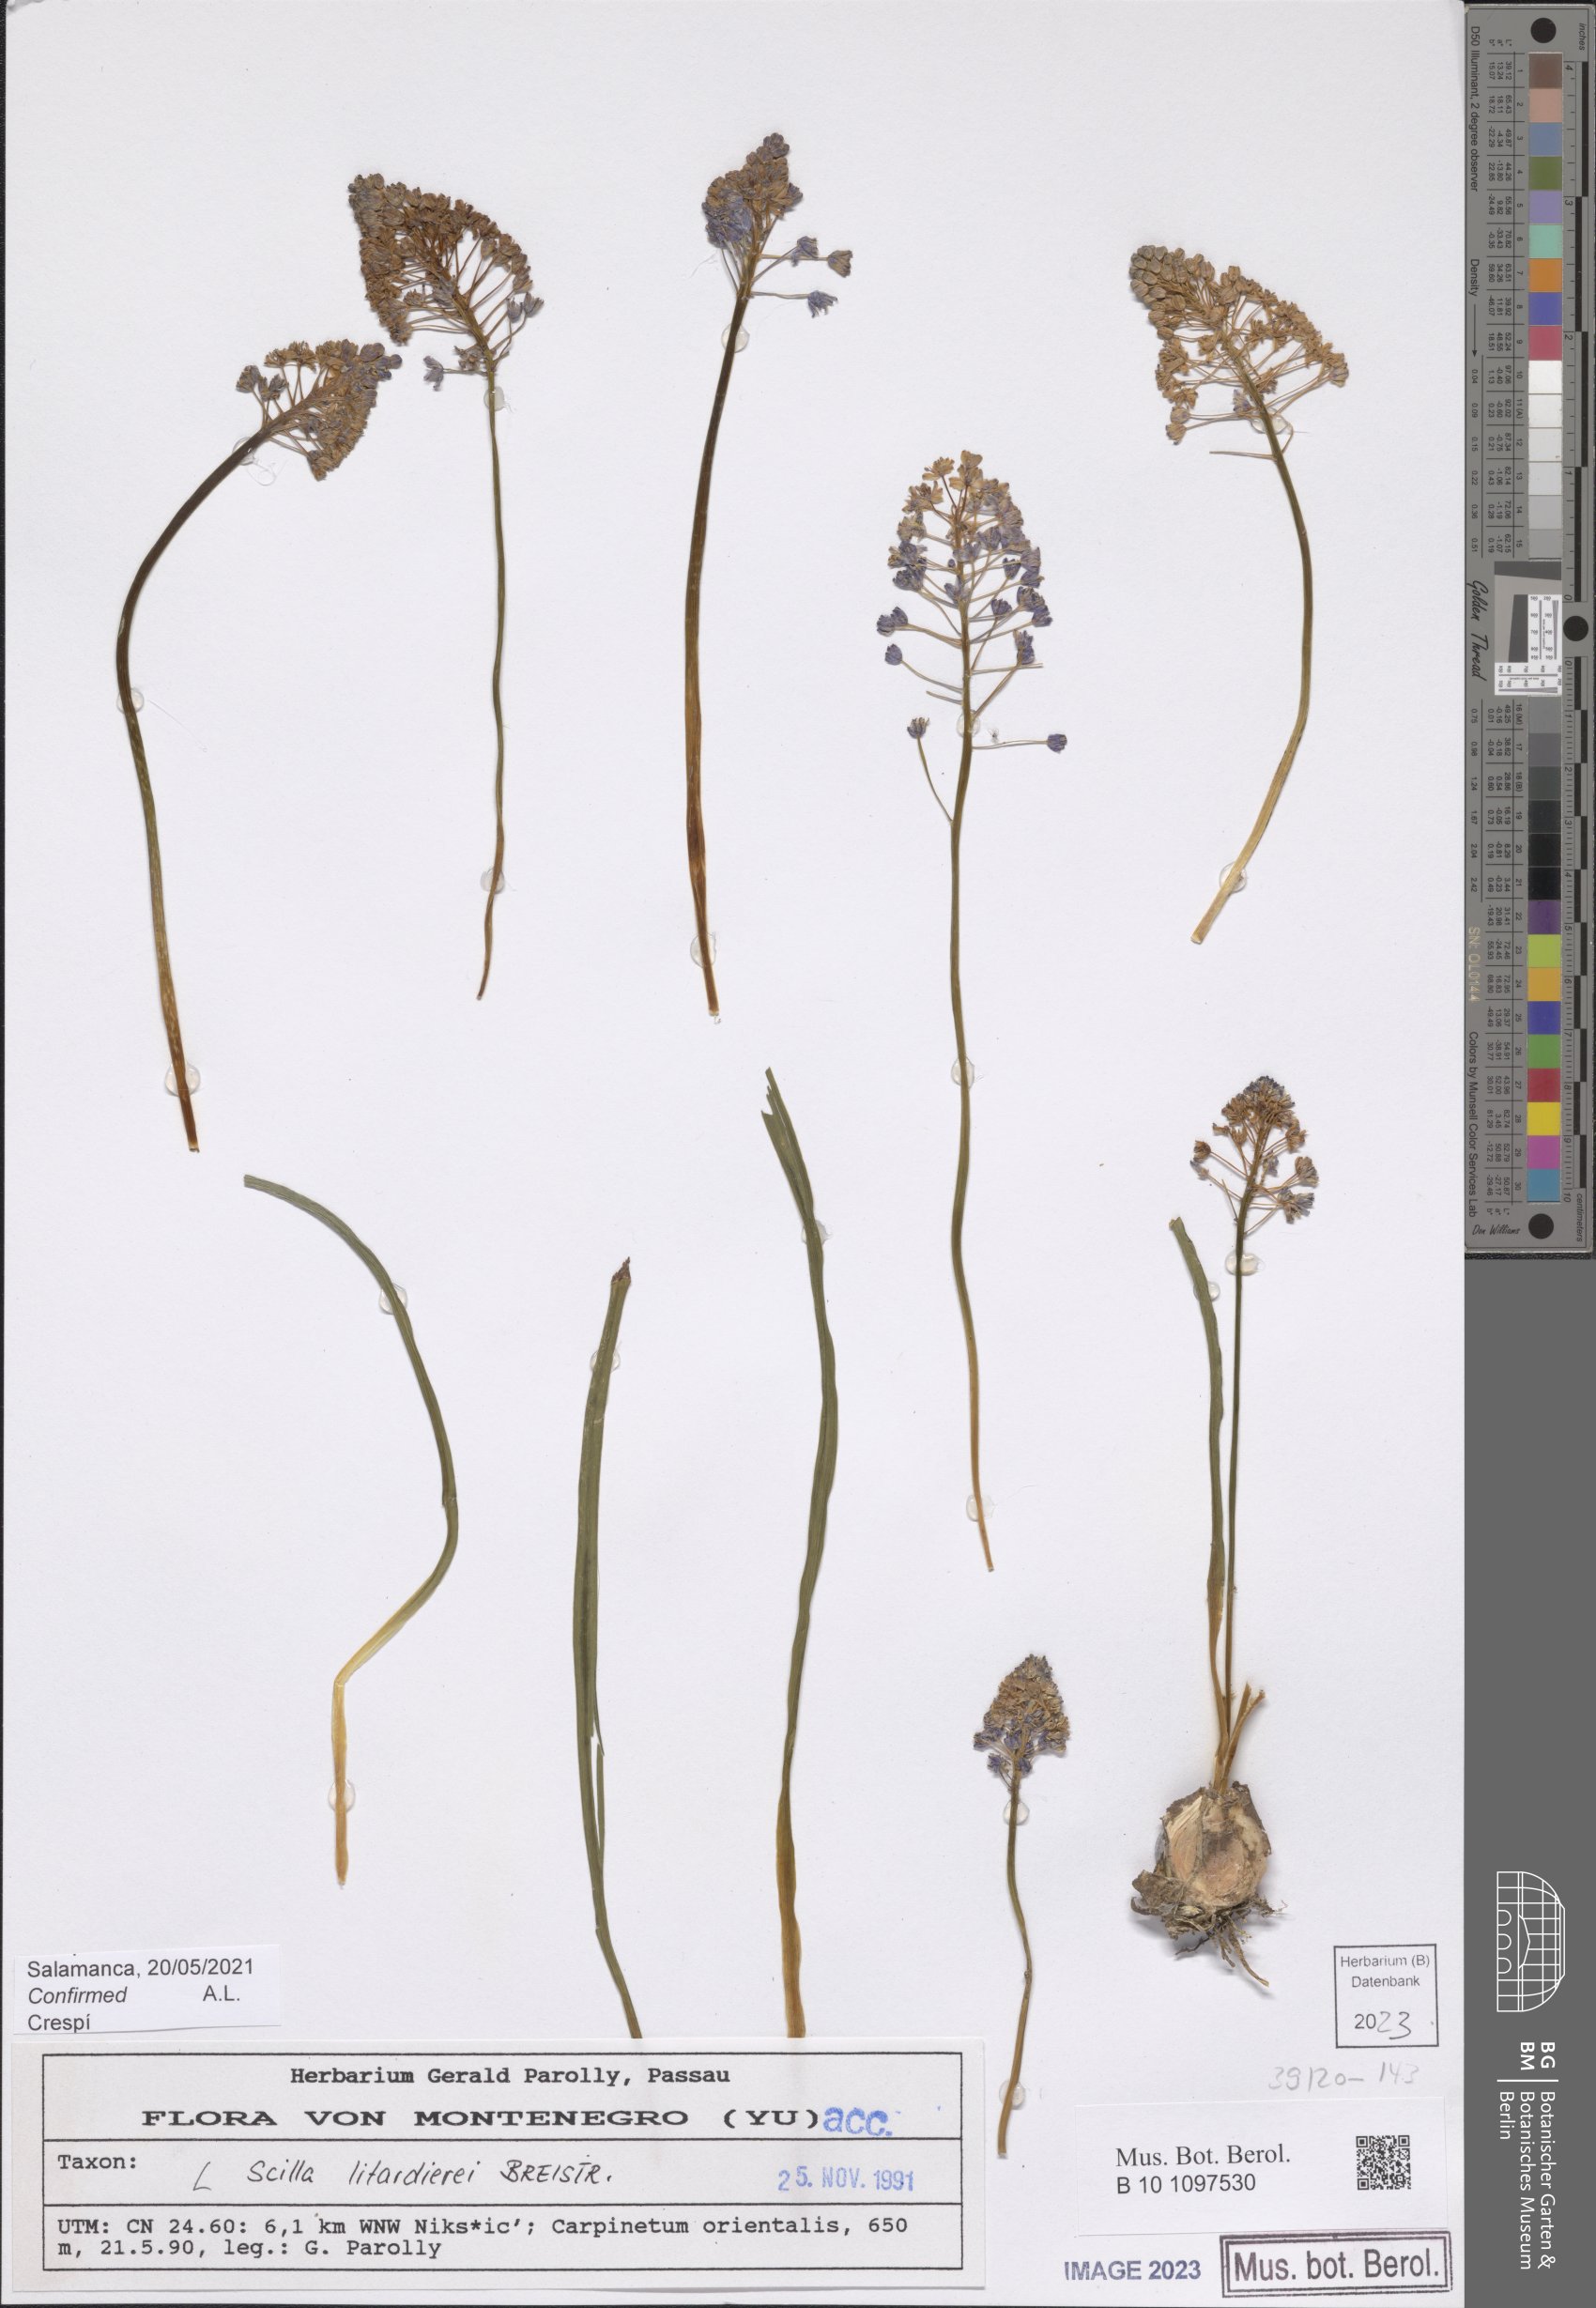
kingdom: Plantae
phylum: Tracheophyta
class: Liliopsida
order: Asparagales
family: Asparagaceae
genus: Scilla
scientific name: Scilla litardierei
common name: Amethyst meadow squill
